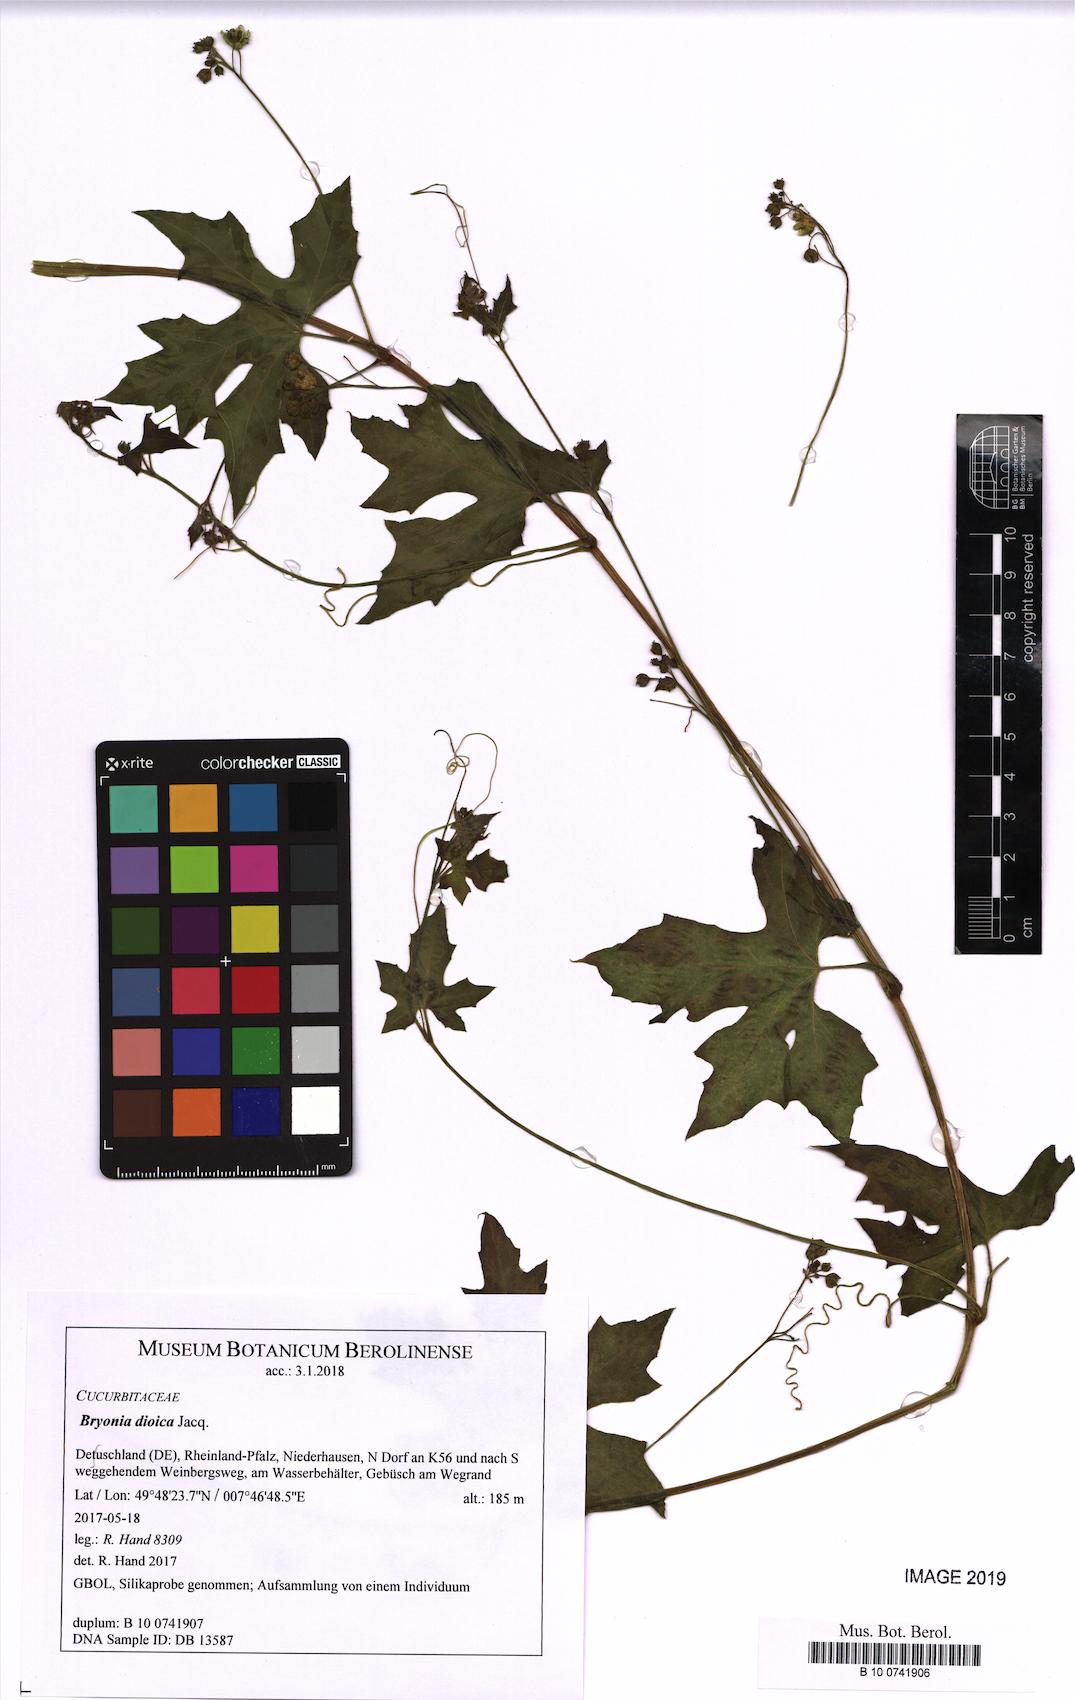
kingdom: Plantae
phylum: Tracheophyta
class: Magnoliopsida
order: Cucurbitales
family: Cucurbitaceae
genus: Bryonia
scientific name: Bryonia dioica
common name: White bryony
